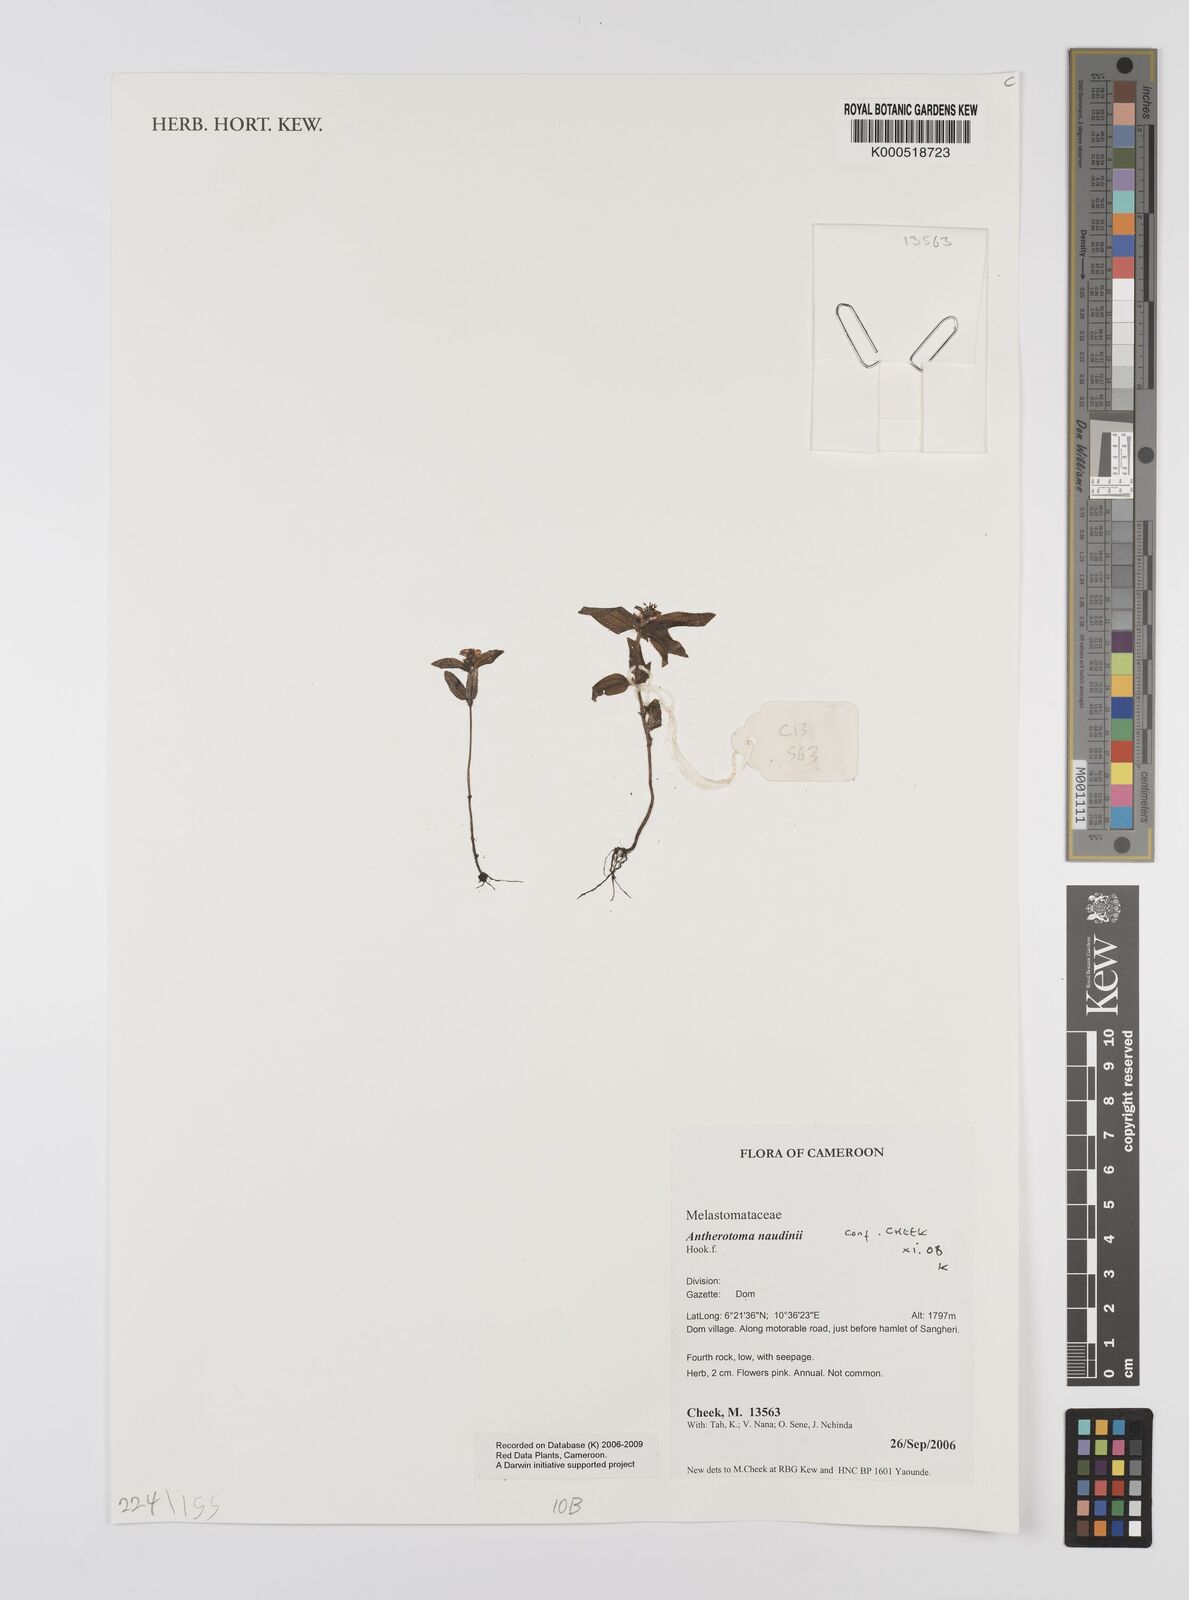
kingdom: Plantae
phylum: Tracheophyta
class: Magnoliopsida
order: Myrtales
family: Melastomataceae
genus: Antherotoma
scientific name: Antherotoma naudinii
